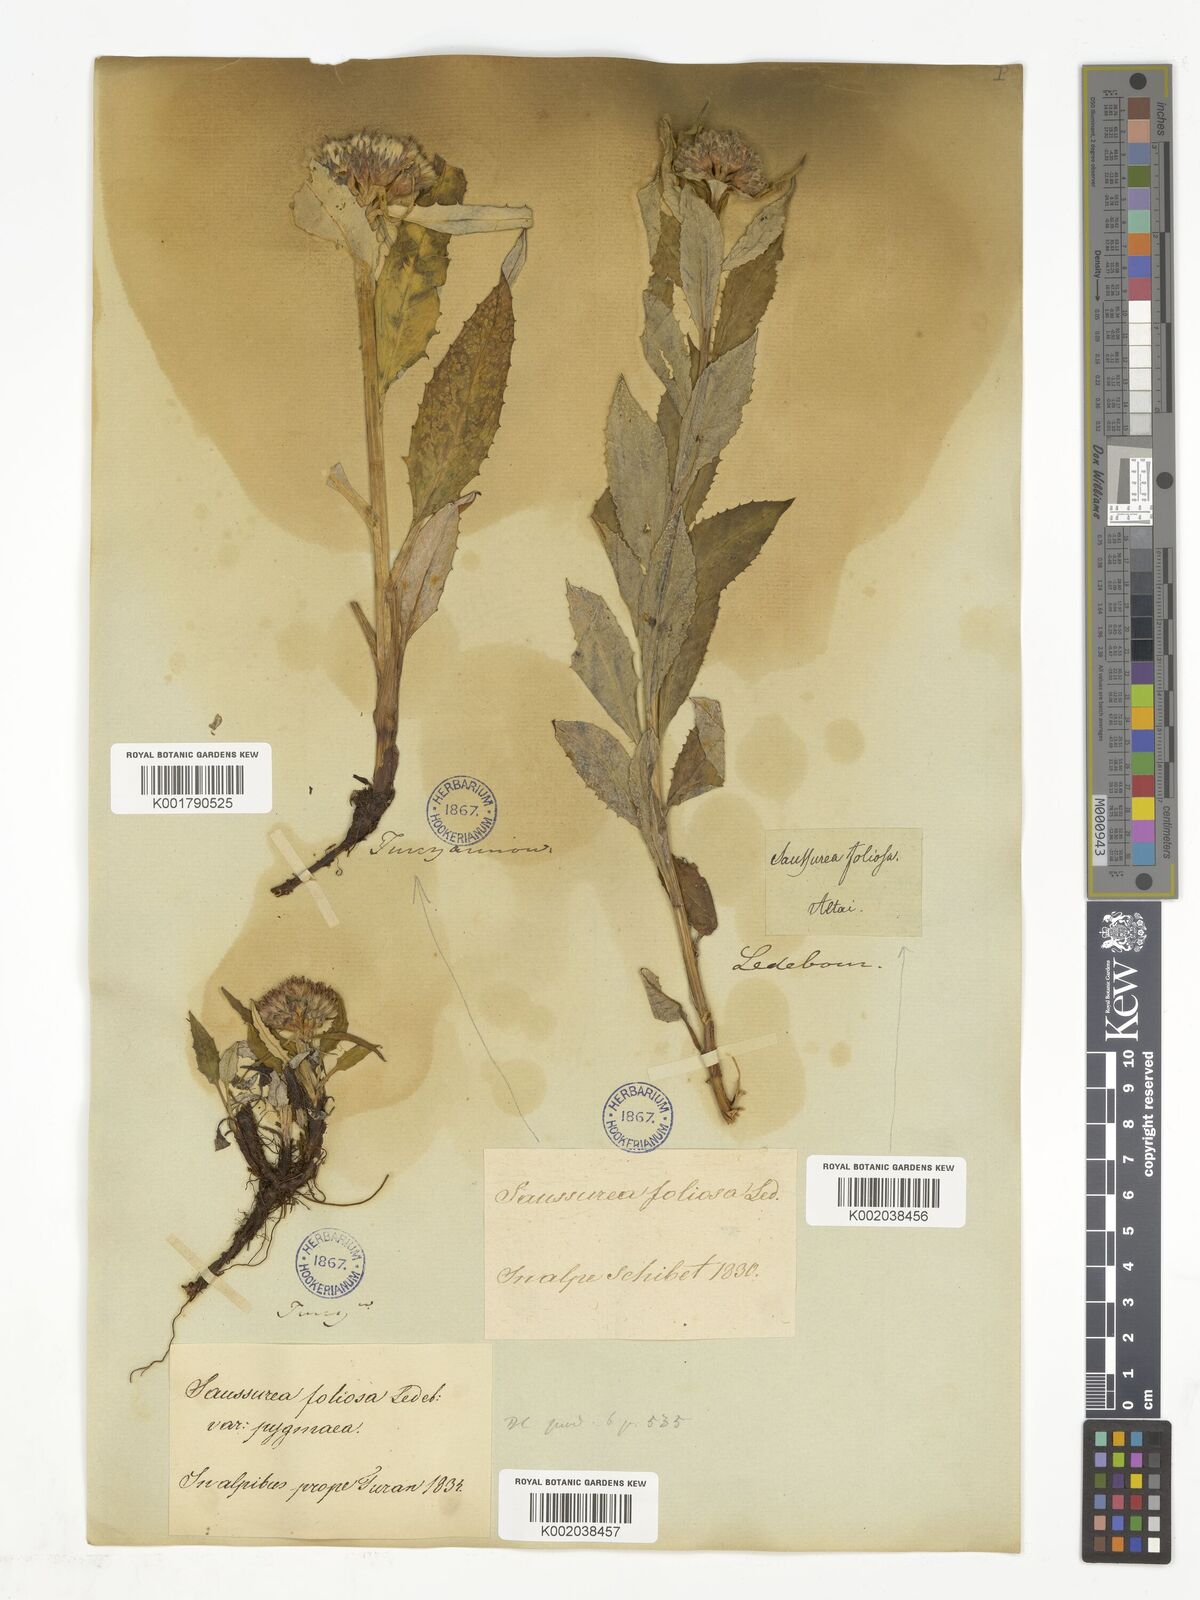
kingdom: Plantae
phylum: Tracheophyta
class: Magnoliopsida
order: Asterales
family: Asteraceae
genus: Saussurea
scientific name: Saussurea edgeworthii
